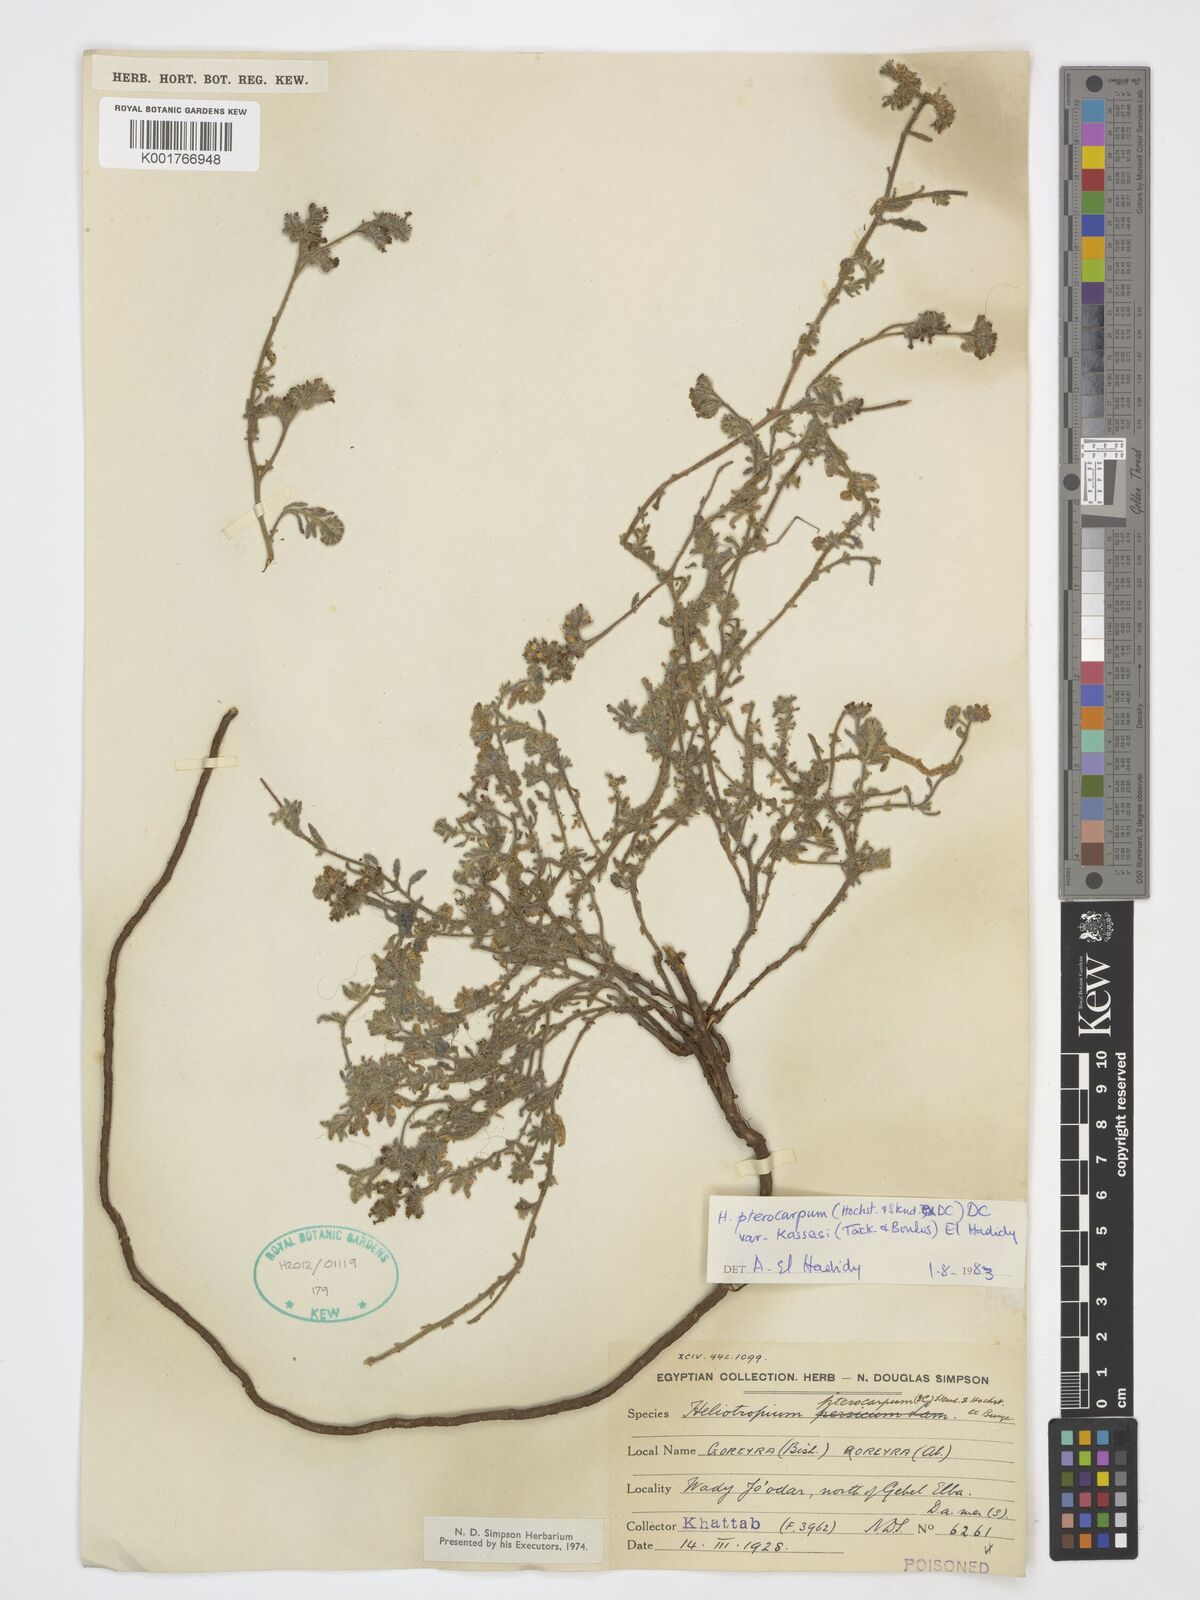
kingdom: Plantae
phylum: Tracheophyta
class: Magnoliopsida
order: Boraginales
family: Heliotropiaceae
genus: Heliotropium
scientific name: Heliotropium pterocarpum
